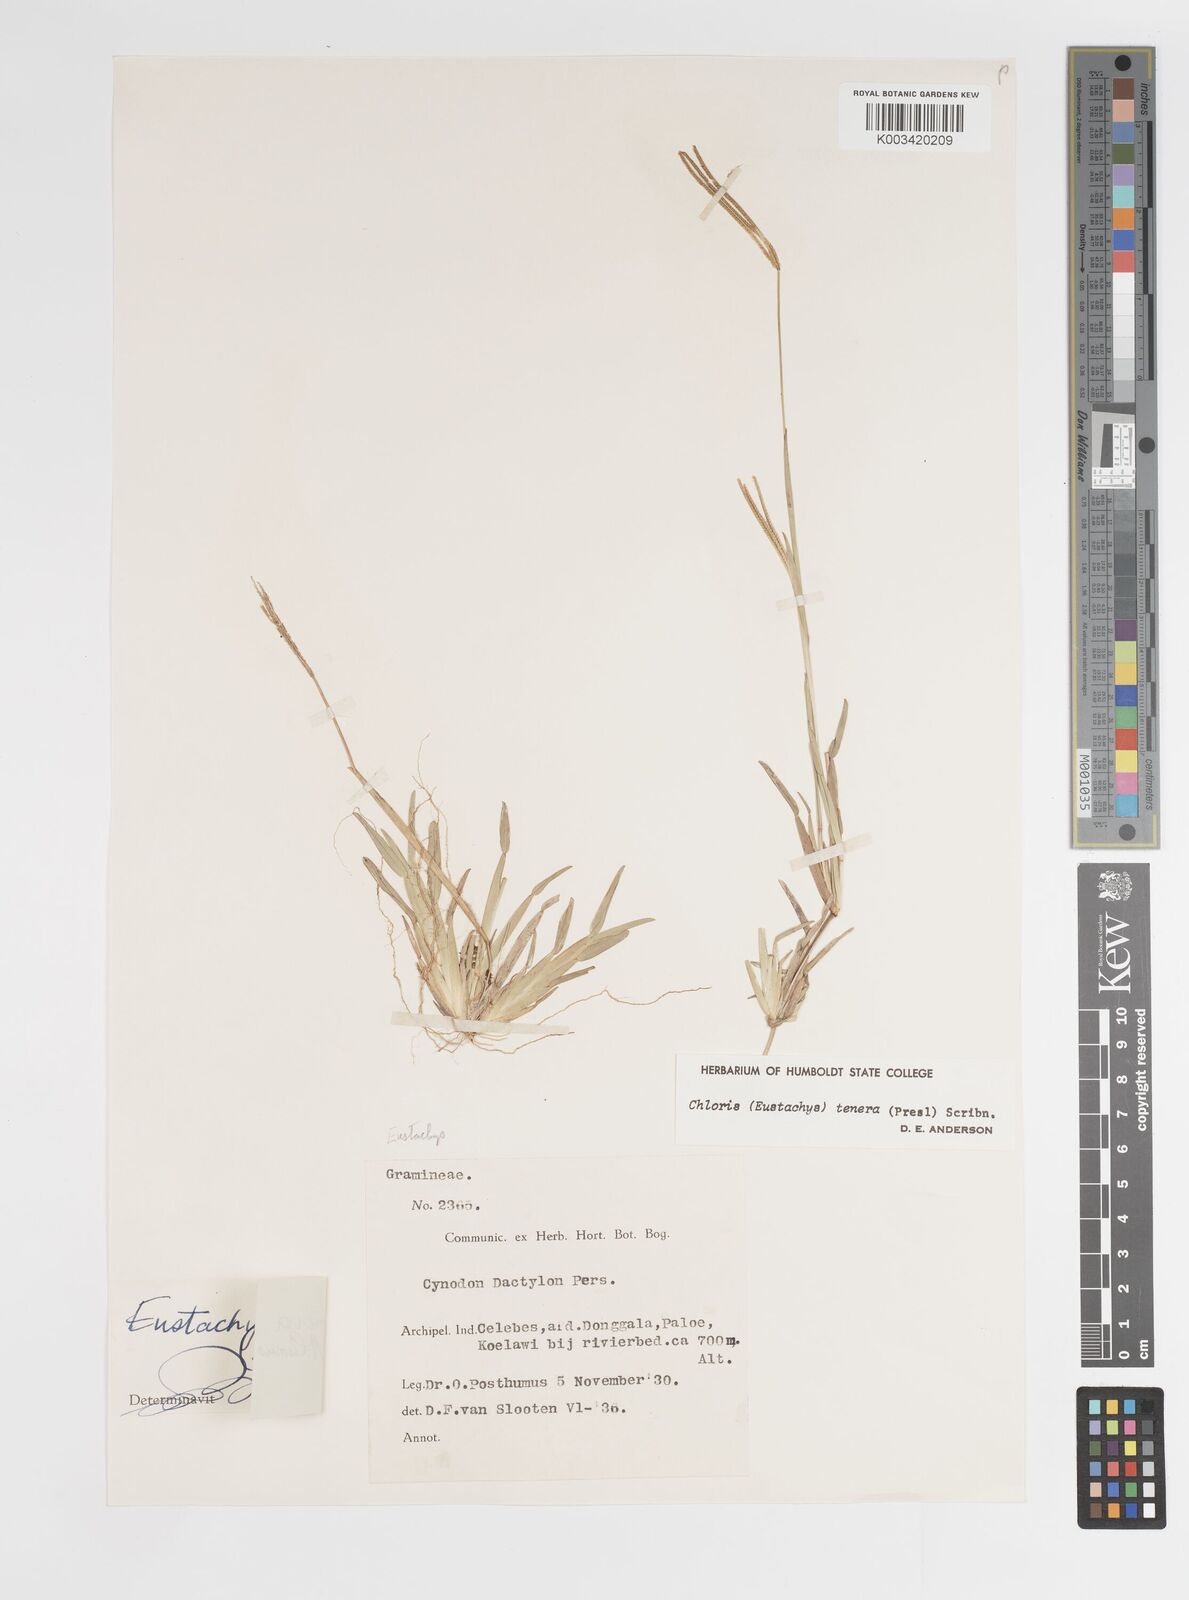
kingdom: Plantae
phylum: Tracheophyta
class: Liliopsida
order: Poales
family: Poaceae
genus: Eustachys
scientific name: Eustachys tenera
